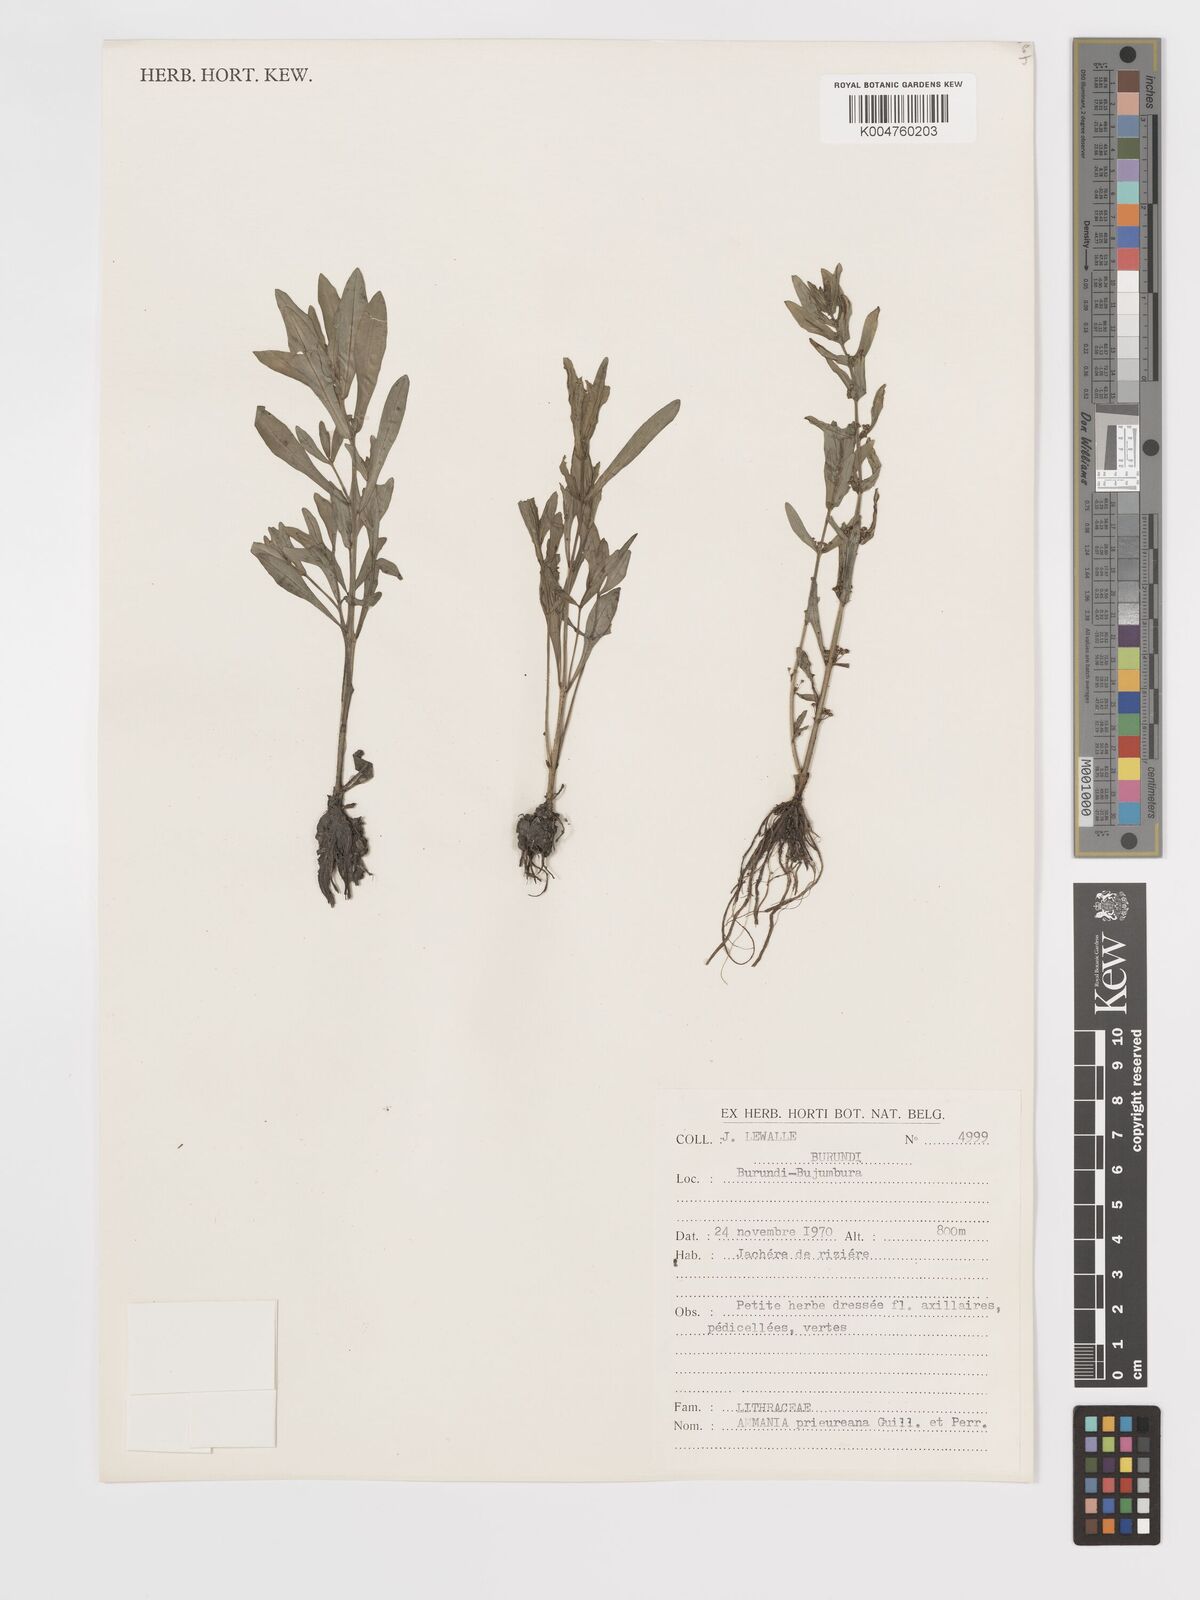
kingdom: Plantae
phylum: Tracheophyta
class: Magnoliopsida
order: Myrtales
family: Lythraceae
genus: Ammannia
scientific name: Ammannia prieuriana
